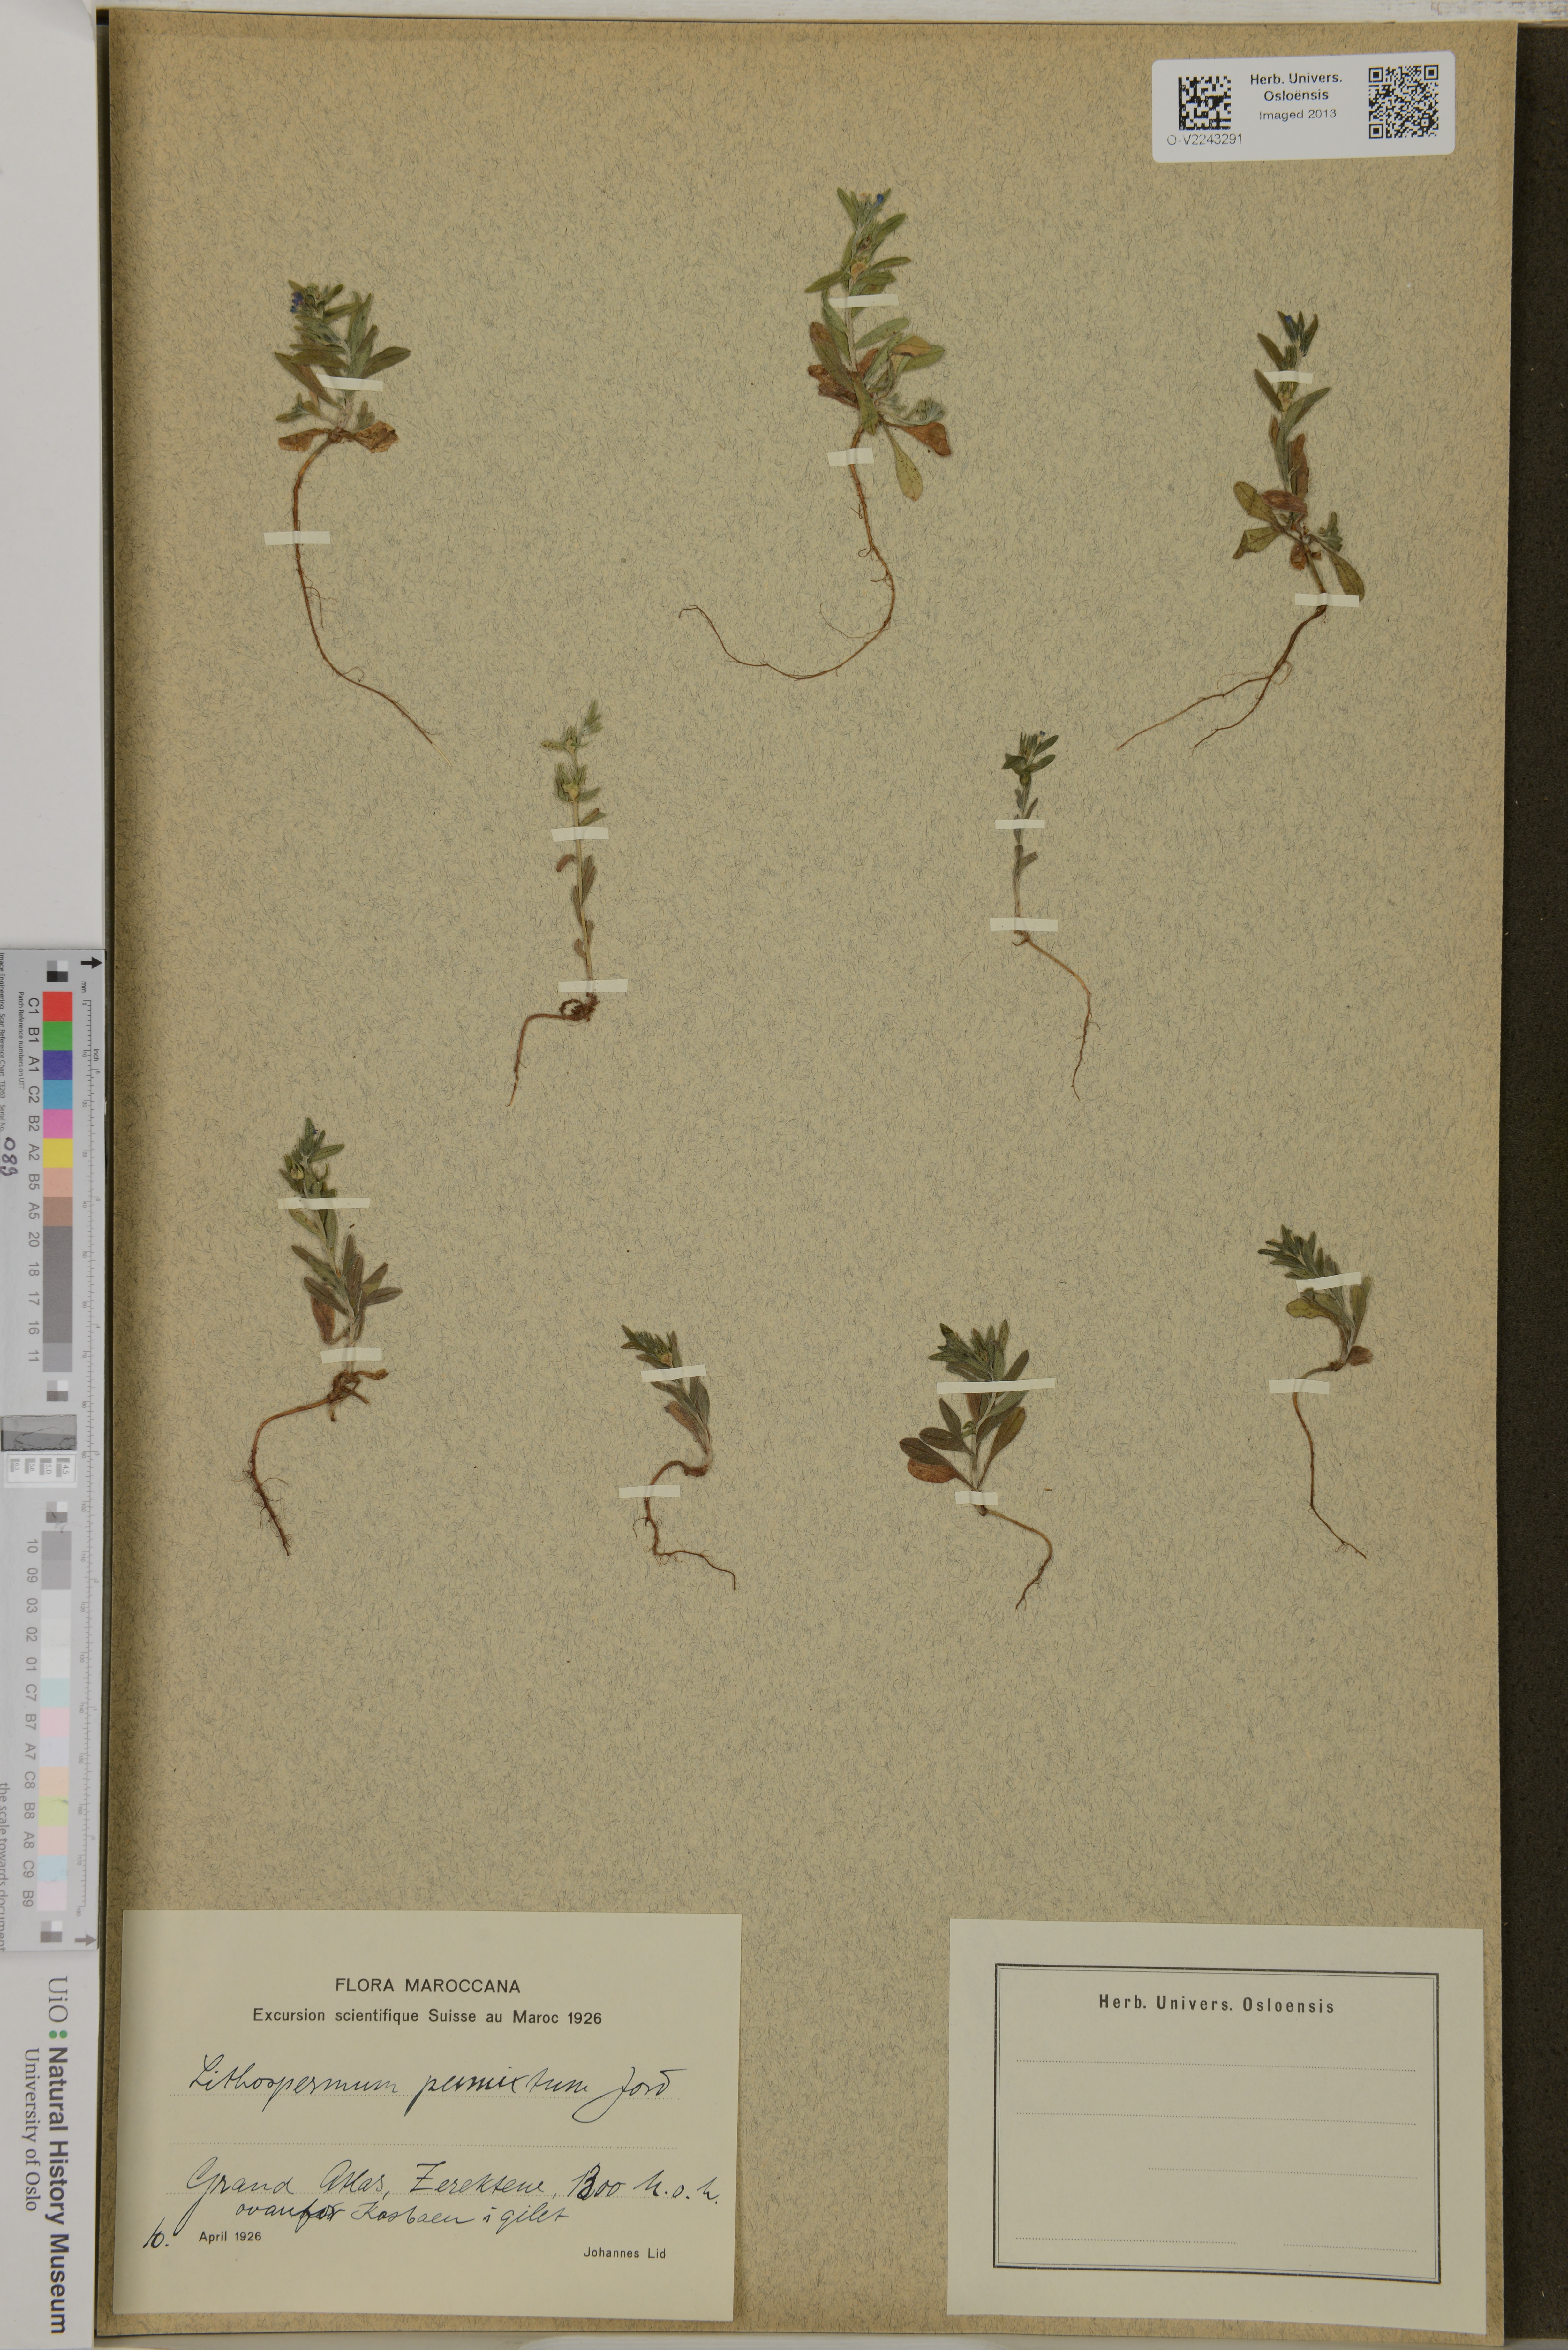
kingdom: Plantae
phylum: Tracheophyta
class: Magnoliopsida
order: Boraginales
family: Boraginaceae
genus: Buglossoides
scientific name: Buglossoides incrassata
